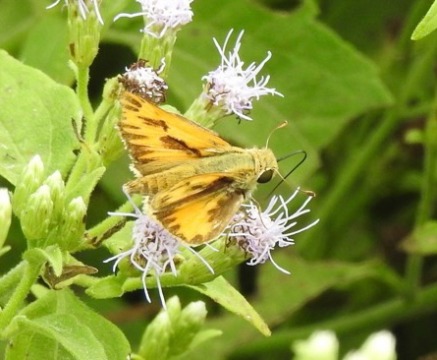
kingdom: Animalia
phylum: Arthropoda
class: Insecta
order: Lepidoptera
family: Hesperiidae
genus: Hylephila
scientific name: Hylephila phyleus
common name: Fiery Skipper
